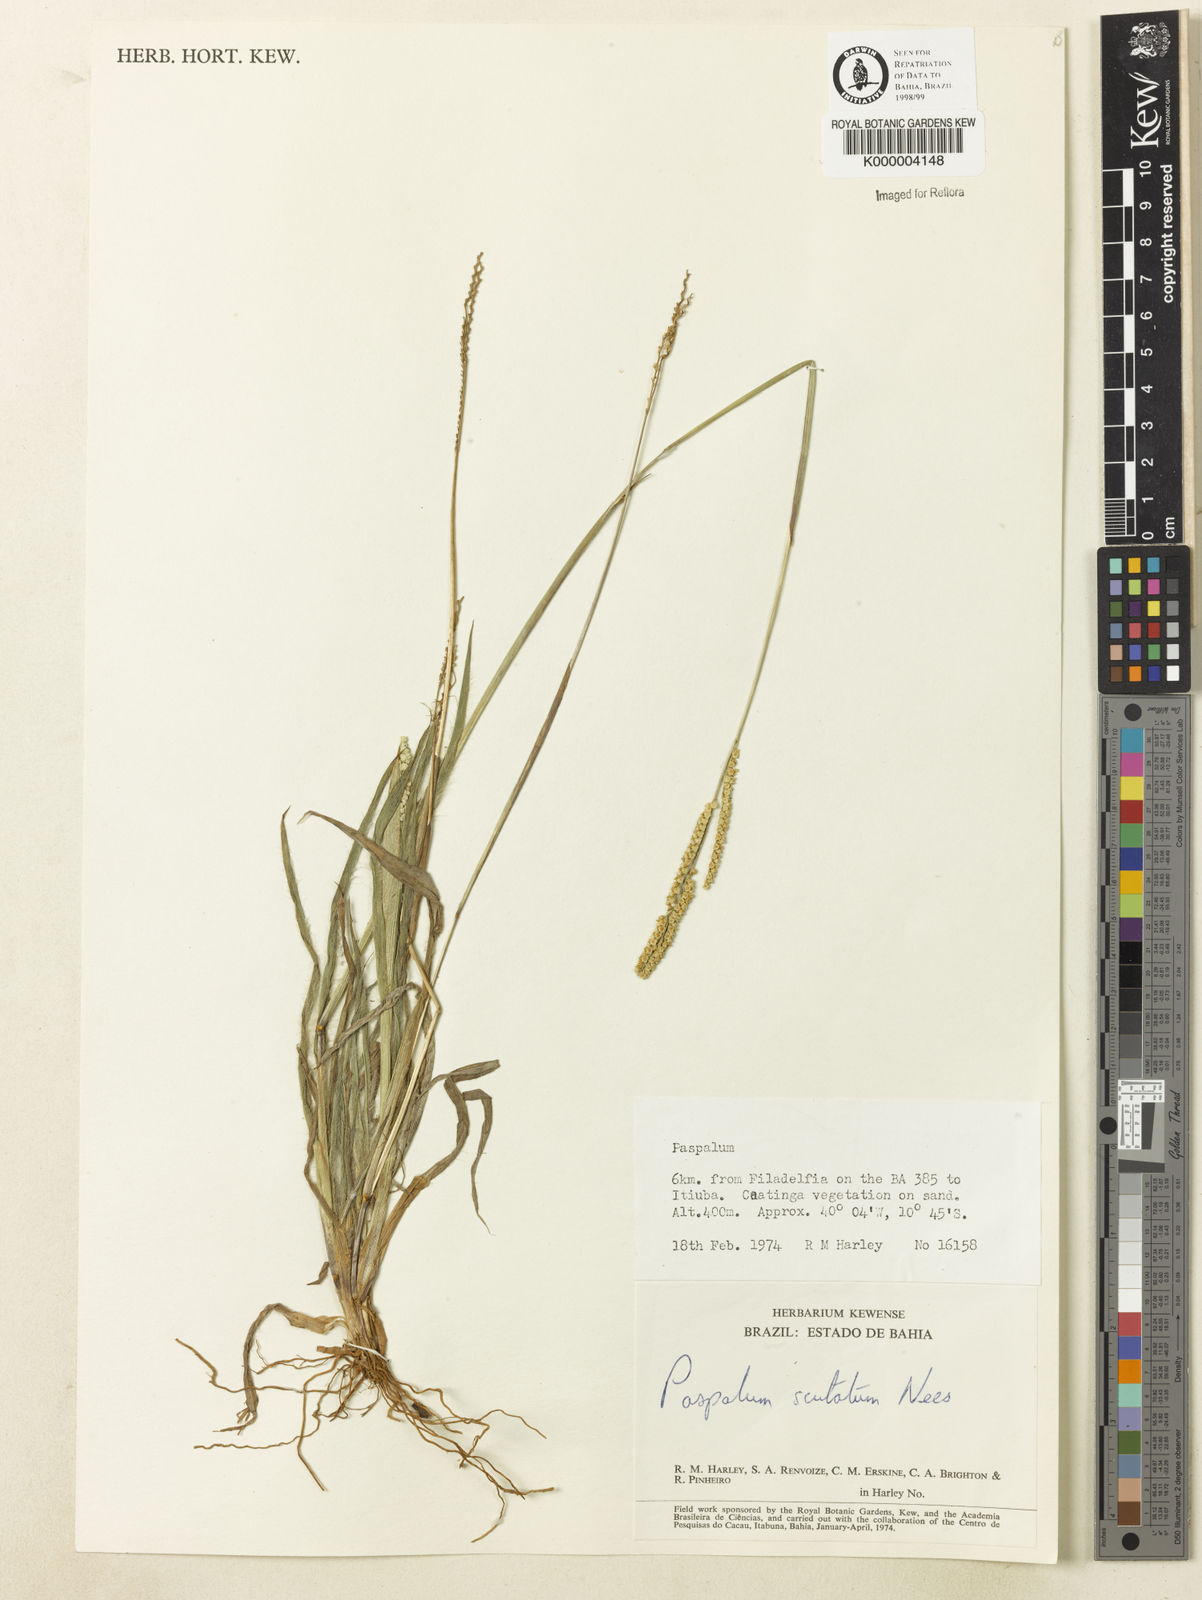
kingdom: Plantae
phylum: Tracheophyta
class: Liliopsida
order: Poales
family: Poaceae
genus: Paspalum
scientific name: Paspalum
